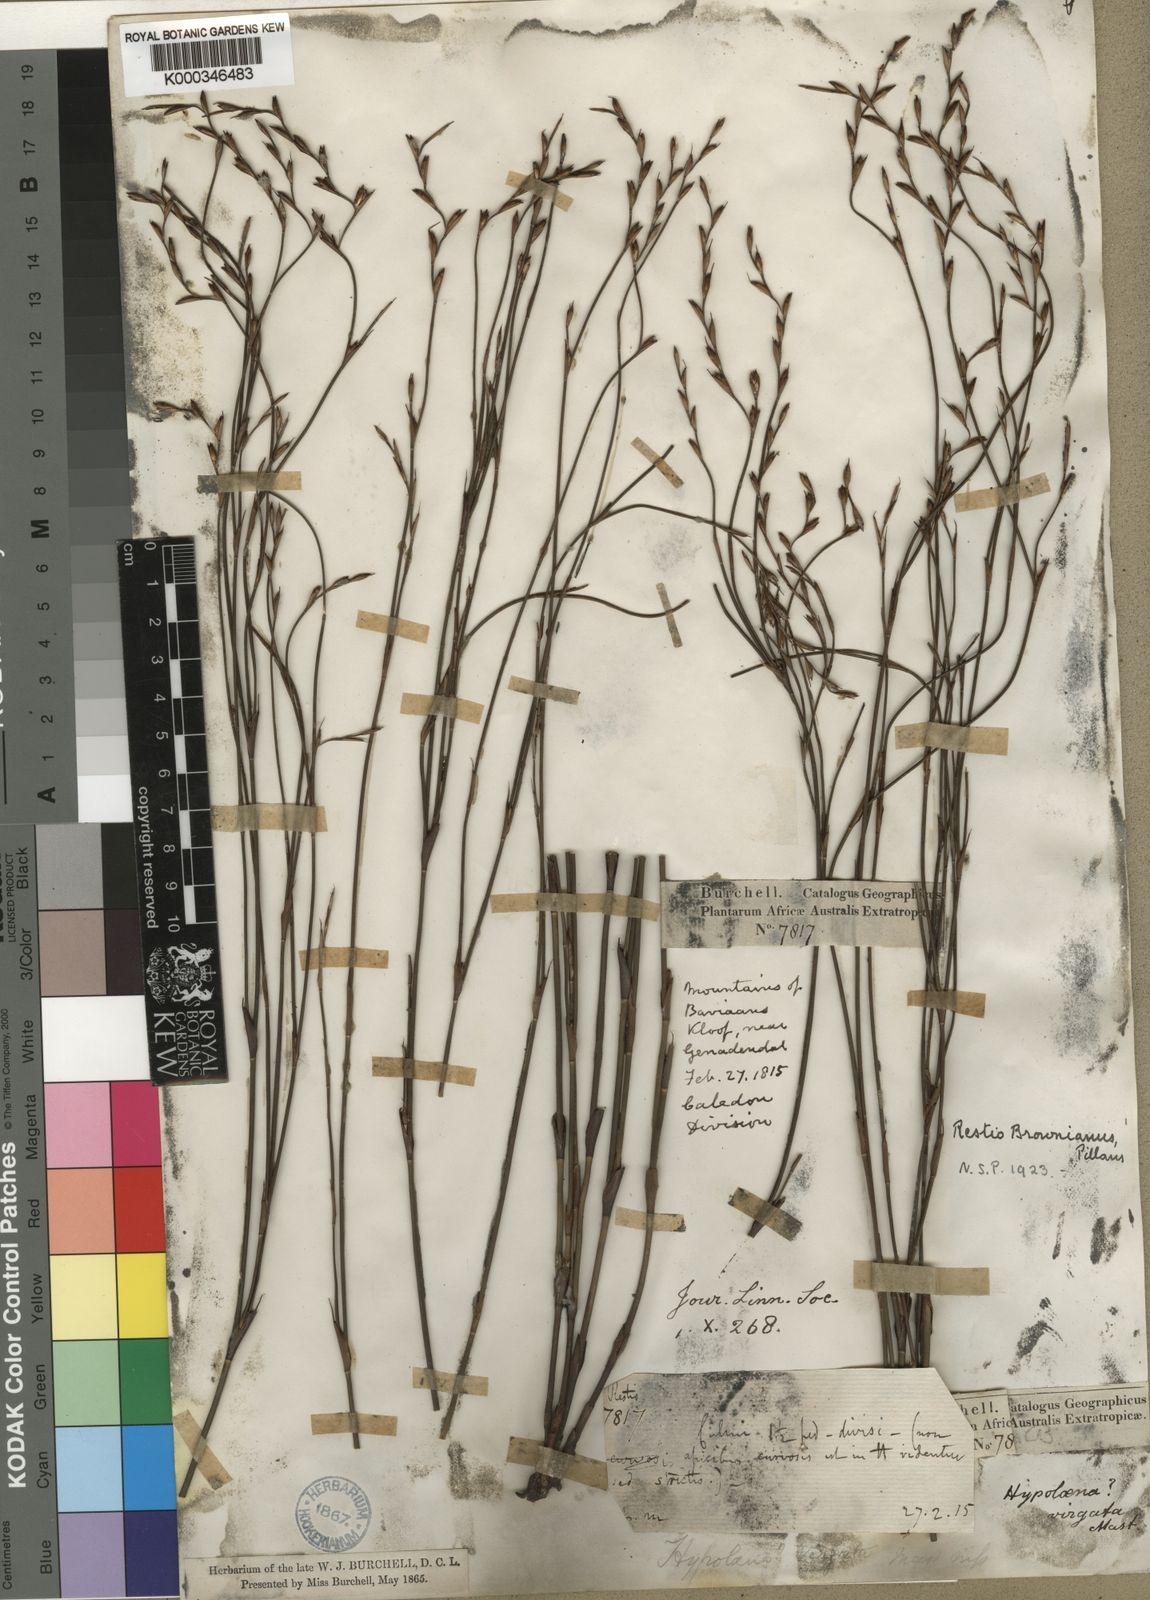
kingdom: Plantae
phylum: Tracheophyta
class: Liliopsida
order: Poales
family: Restionaceae
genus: Restio
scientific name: Restio debilis
